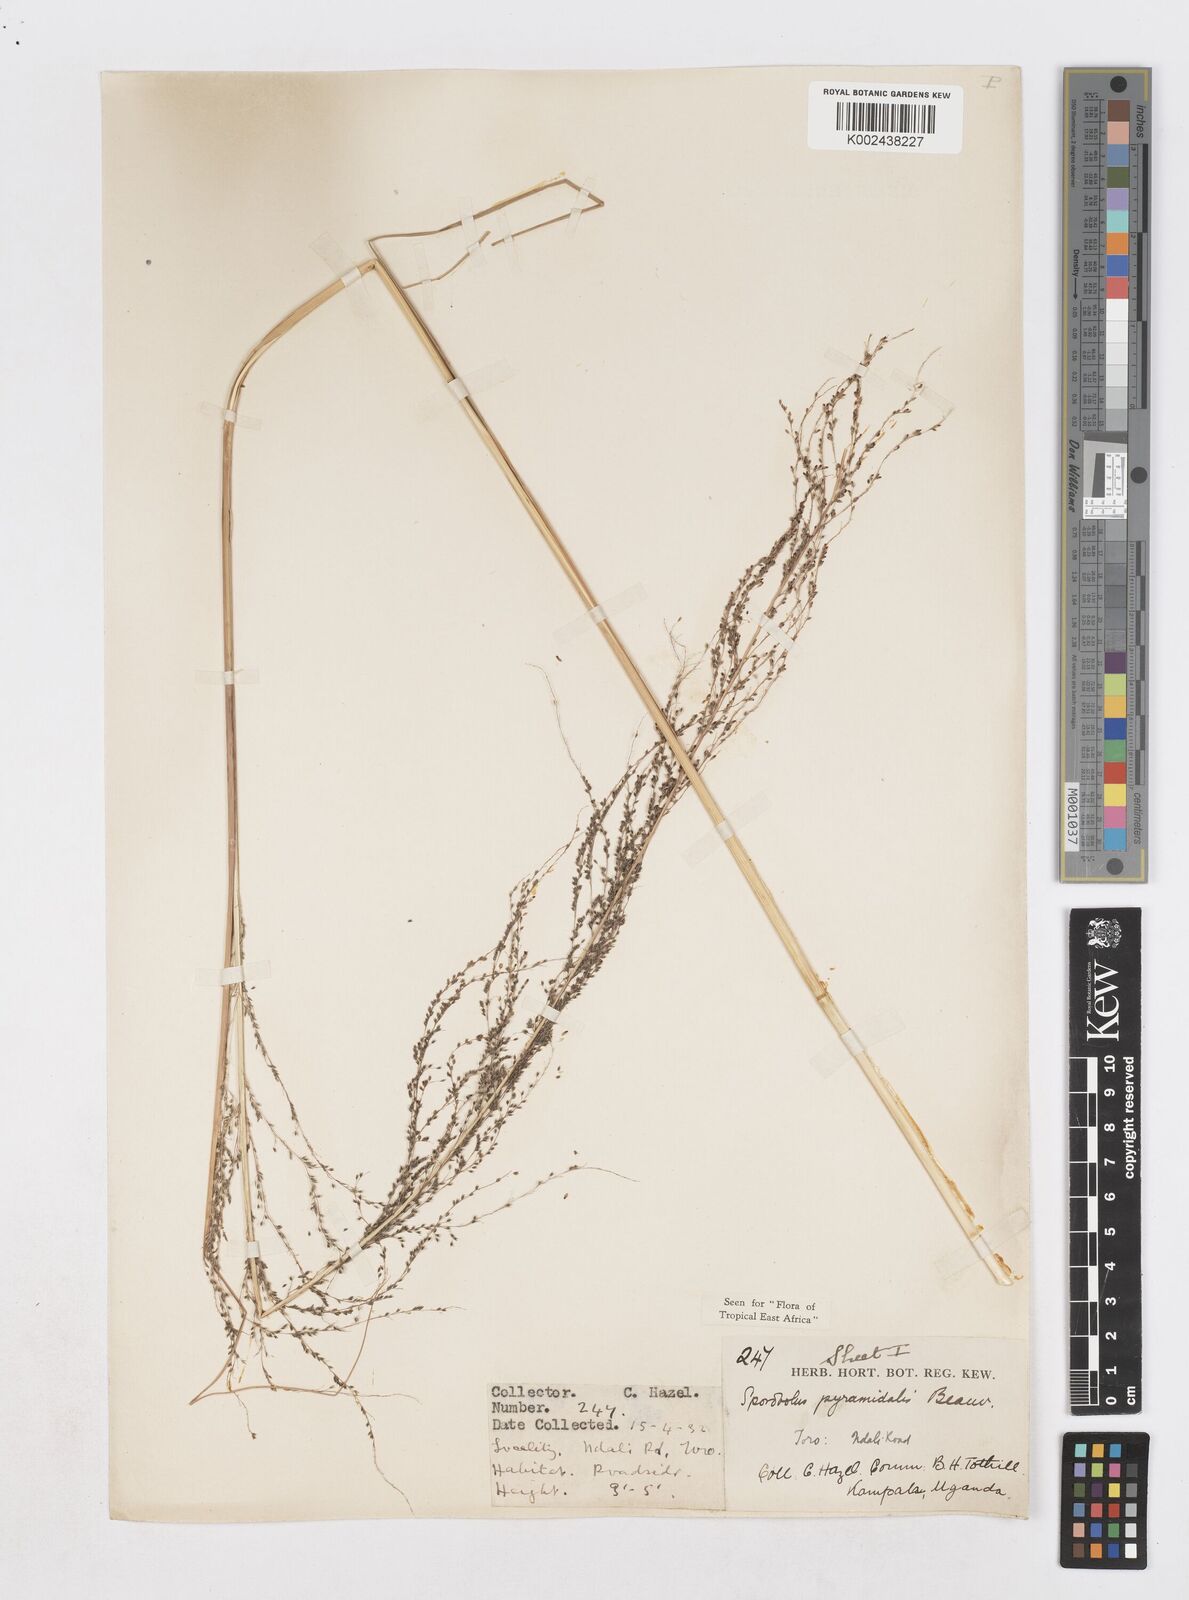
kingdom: Plantae
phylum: Tracheophyta
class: Liliopsida
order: Poales
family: Poaceae
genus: Sporobolus
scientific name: Sporobolus pyramidalis
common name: West indian dropseed
